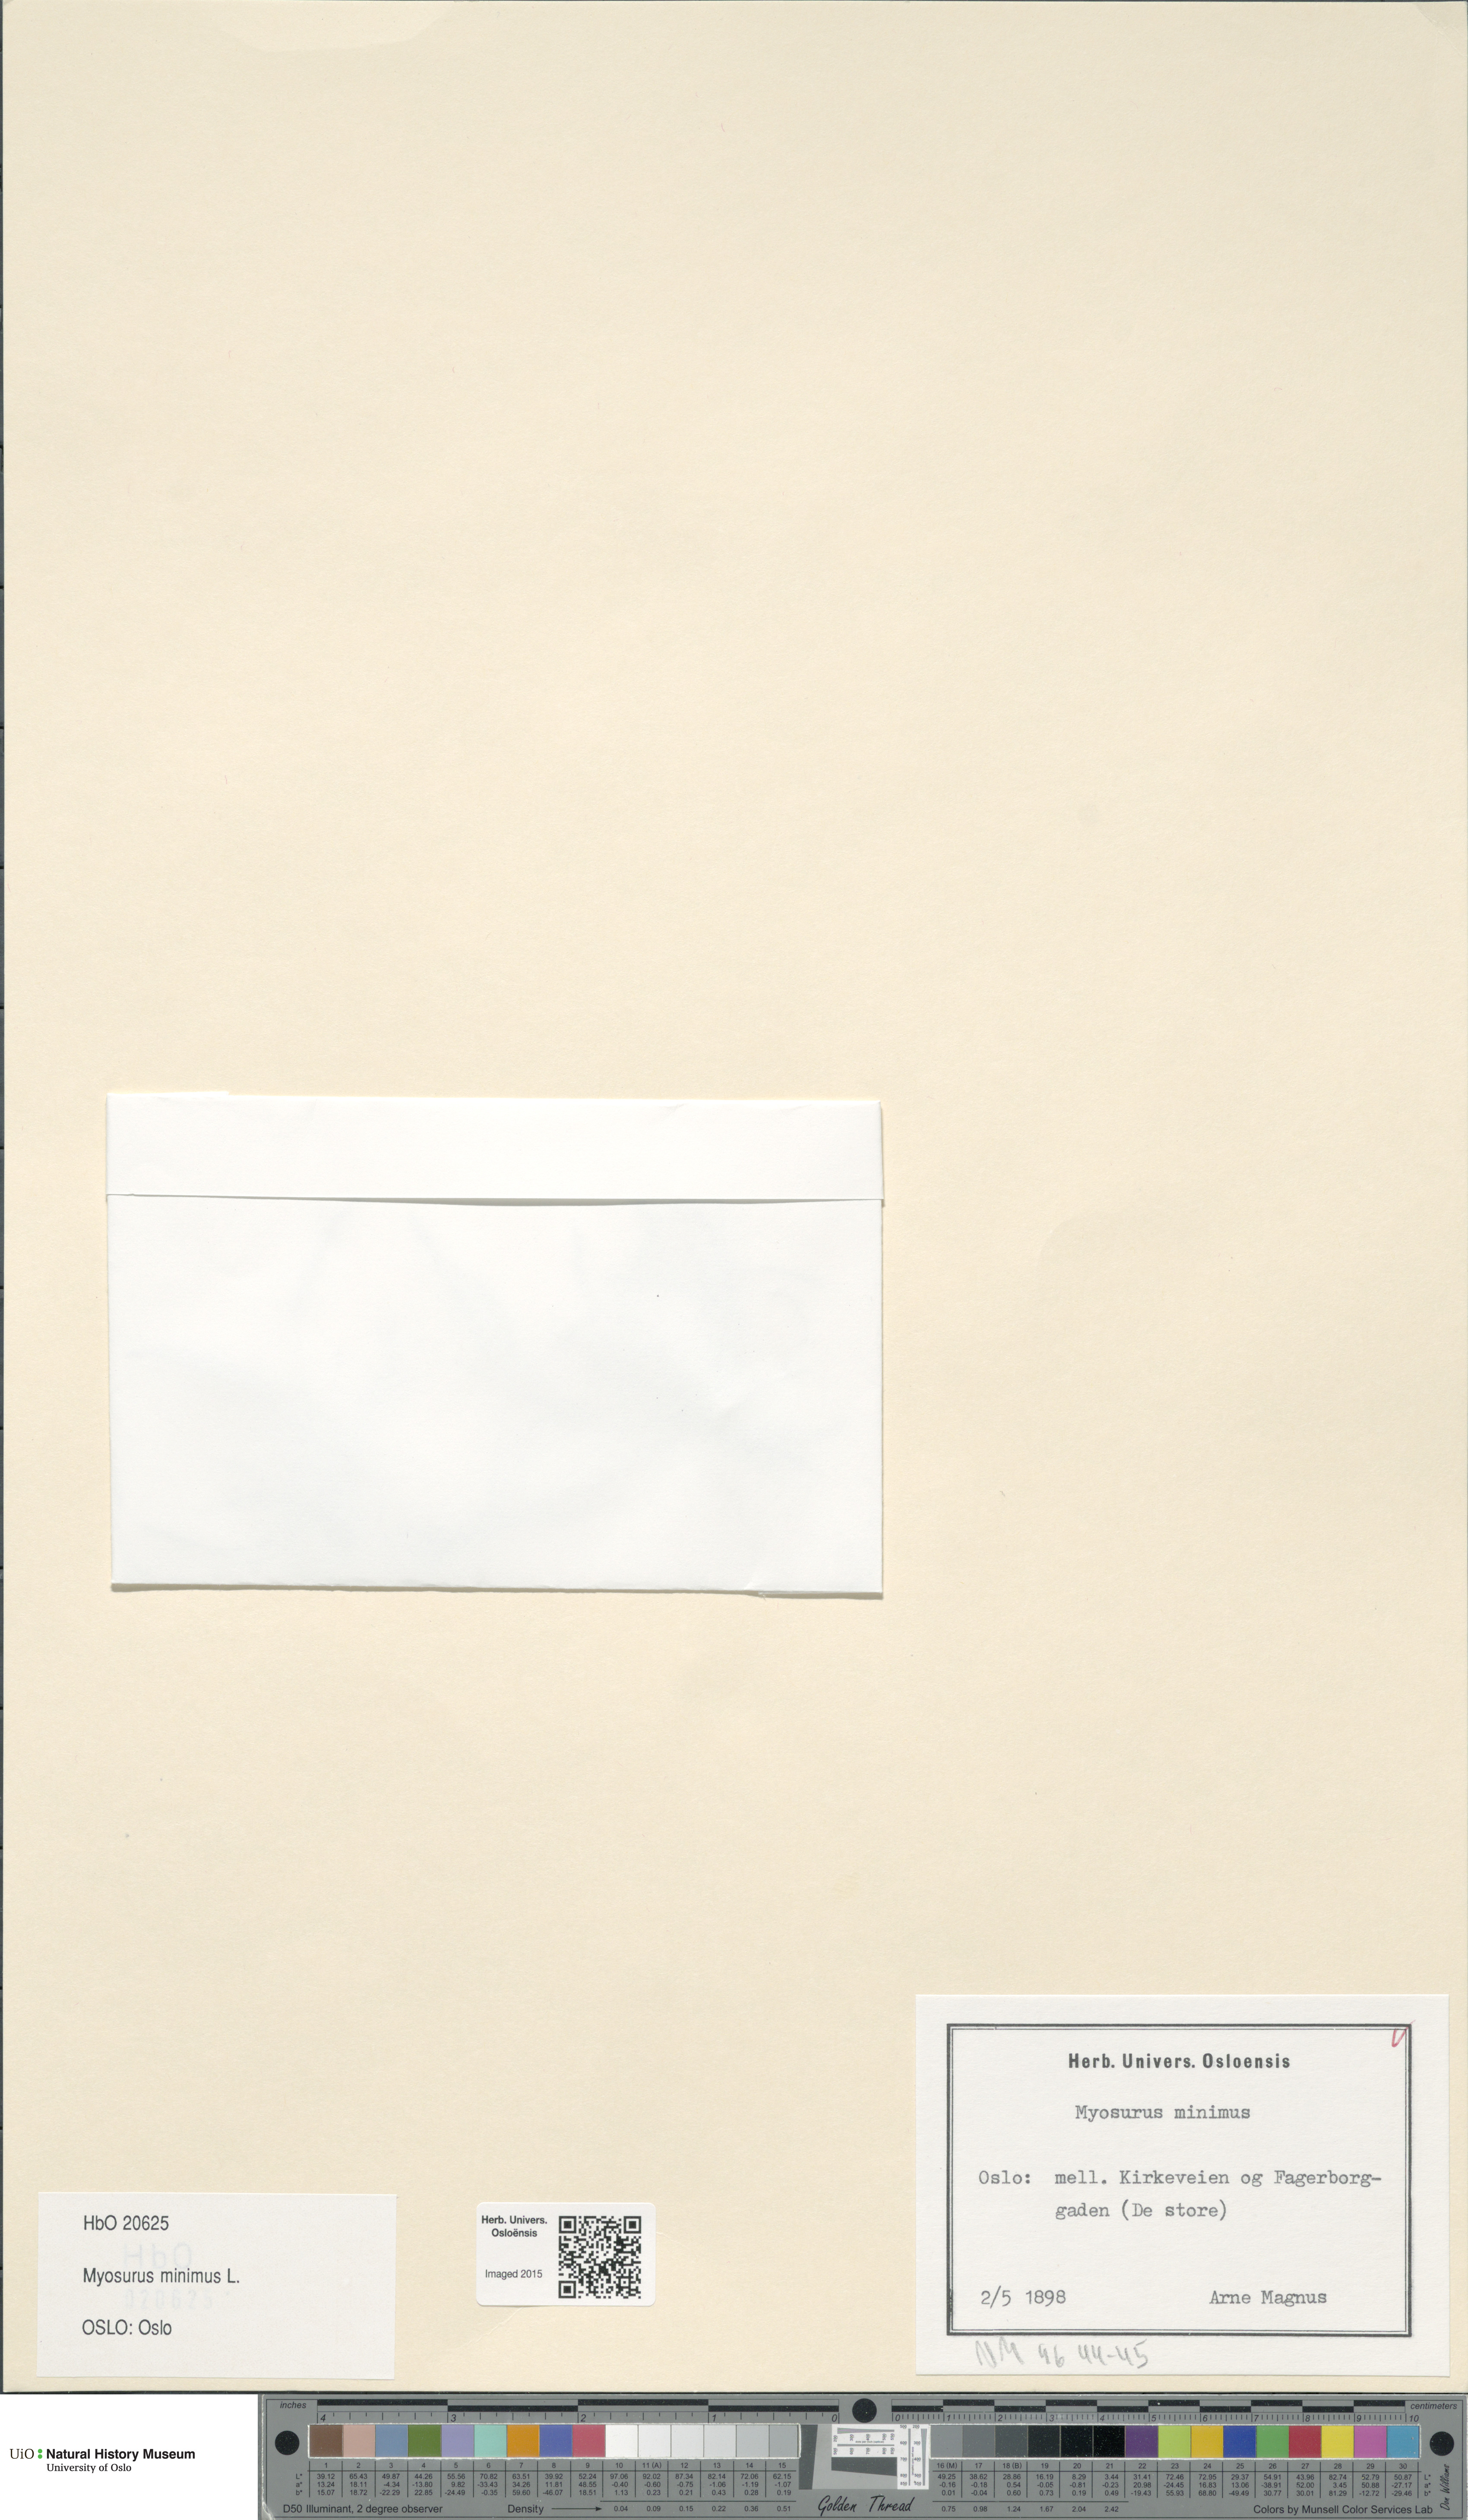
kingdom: Plantae
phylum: Tracheophyta
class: Magnoliopsida
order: Ranunculales
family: Ranunculaceae
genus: Myosurus
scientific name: Myosurus minimus
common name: Mousetail
